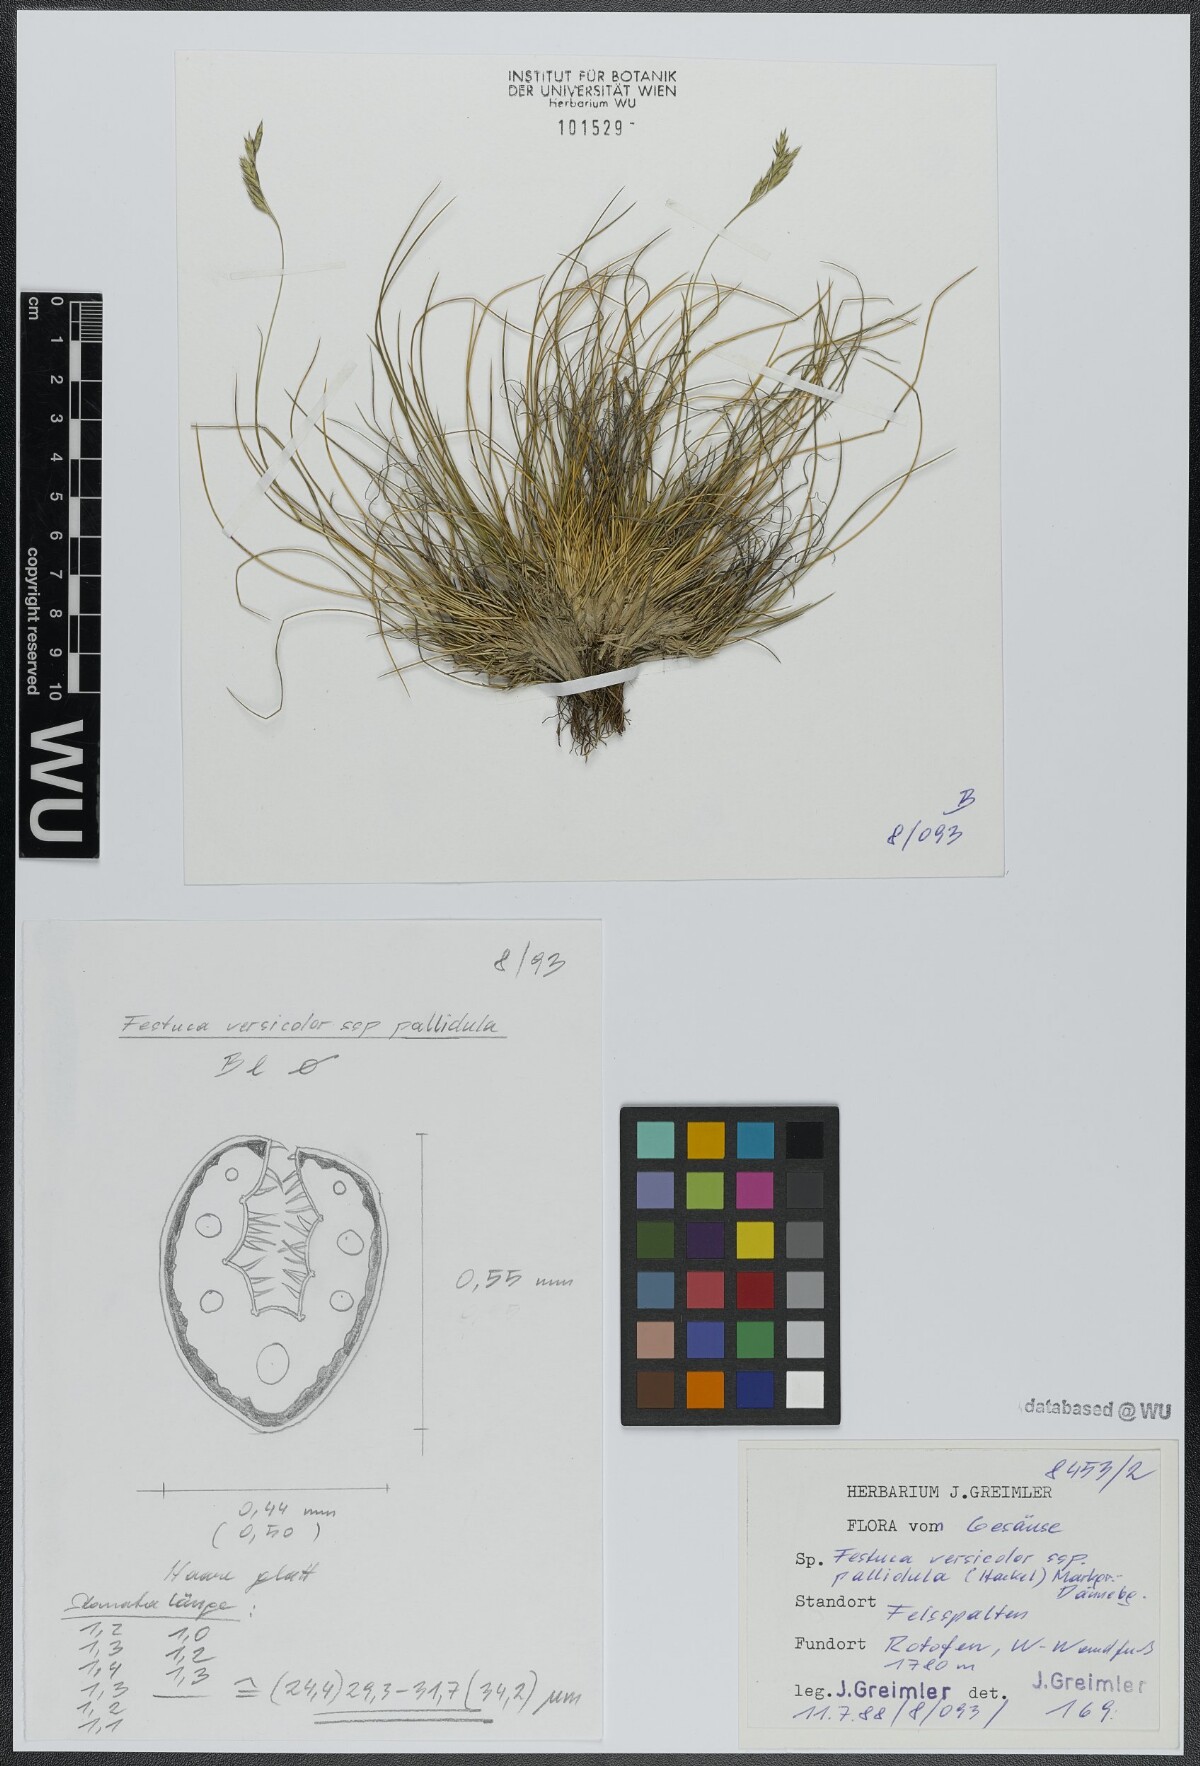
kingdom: Plantae
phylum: Tracheophyta
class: Liliopsida
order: Poales
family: Poaceae
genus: Festuca
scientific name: Festuca varia
